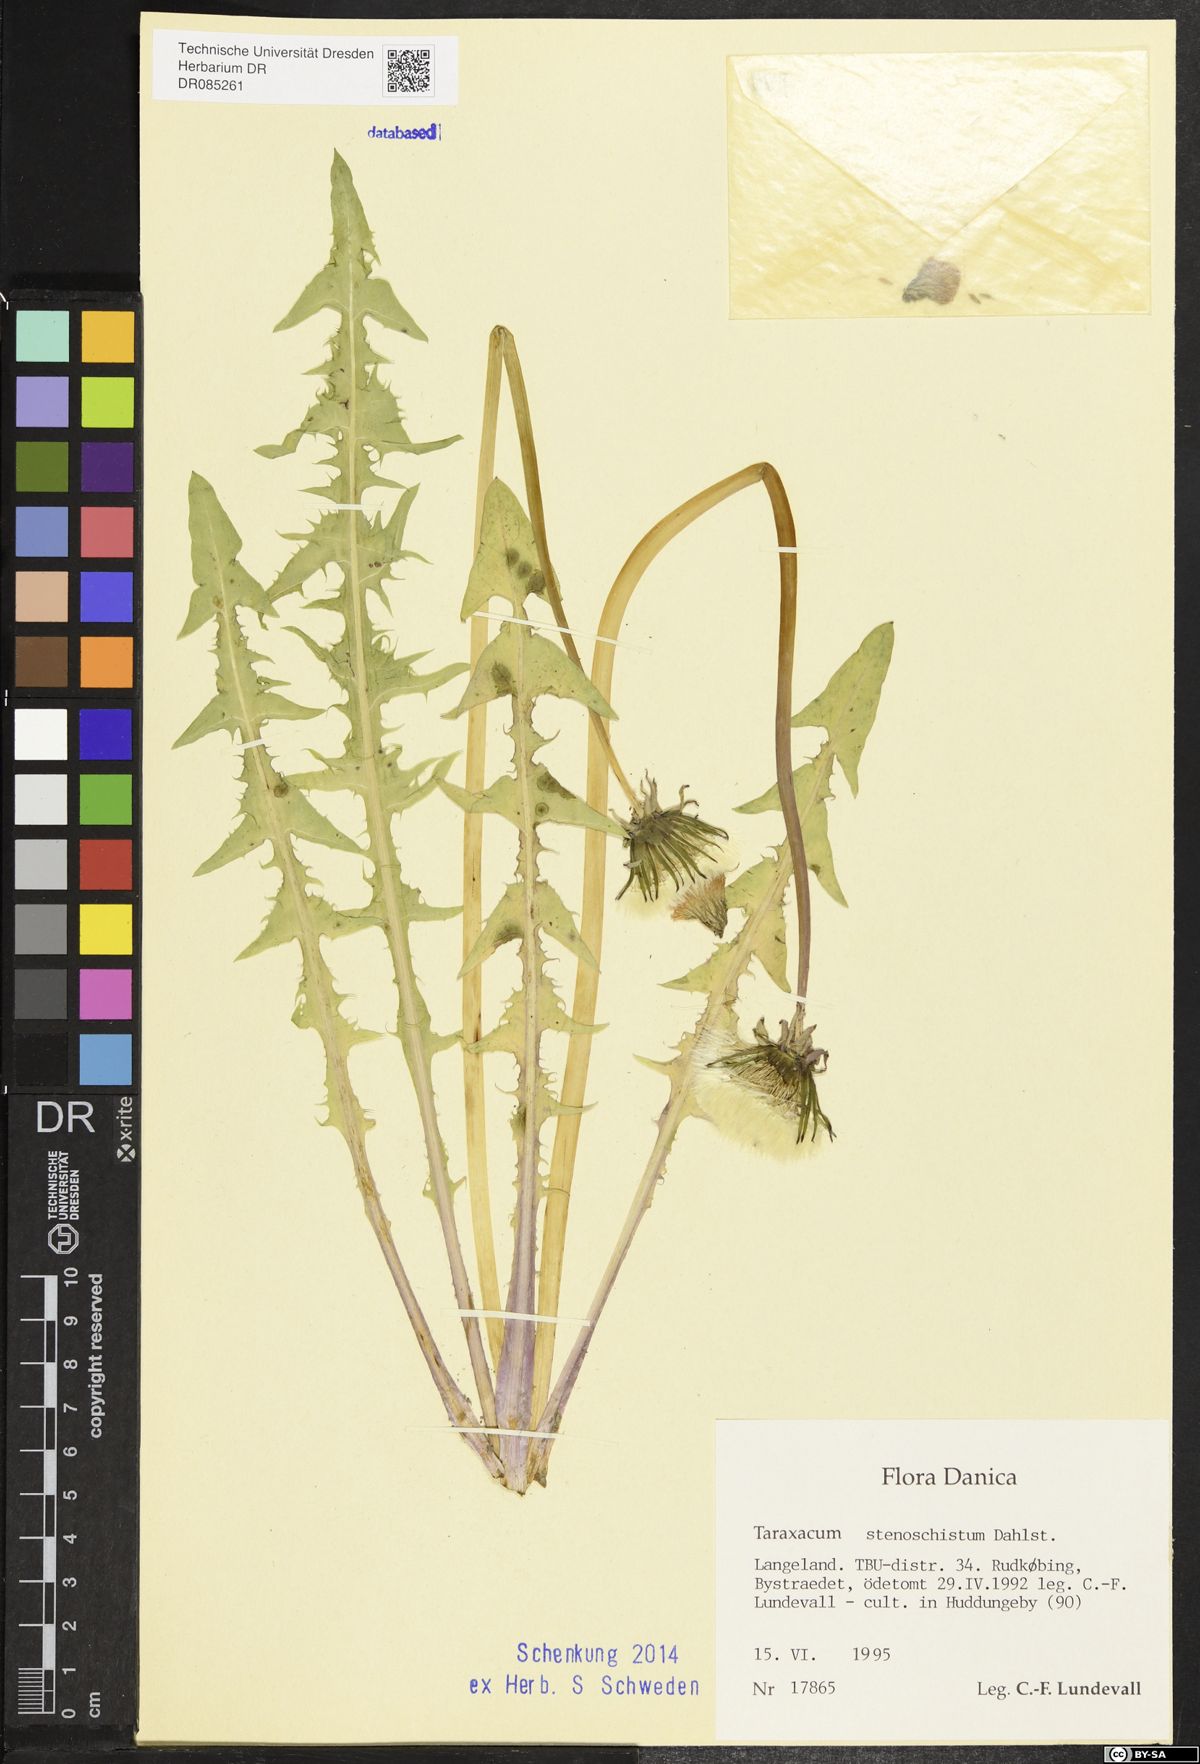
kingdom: Plantae
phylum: Tracheophyta
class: Magnoliopsida
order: Asterales
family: Asteraceae
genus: Taraxacum
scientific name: Taraxacum stenoschistum
